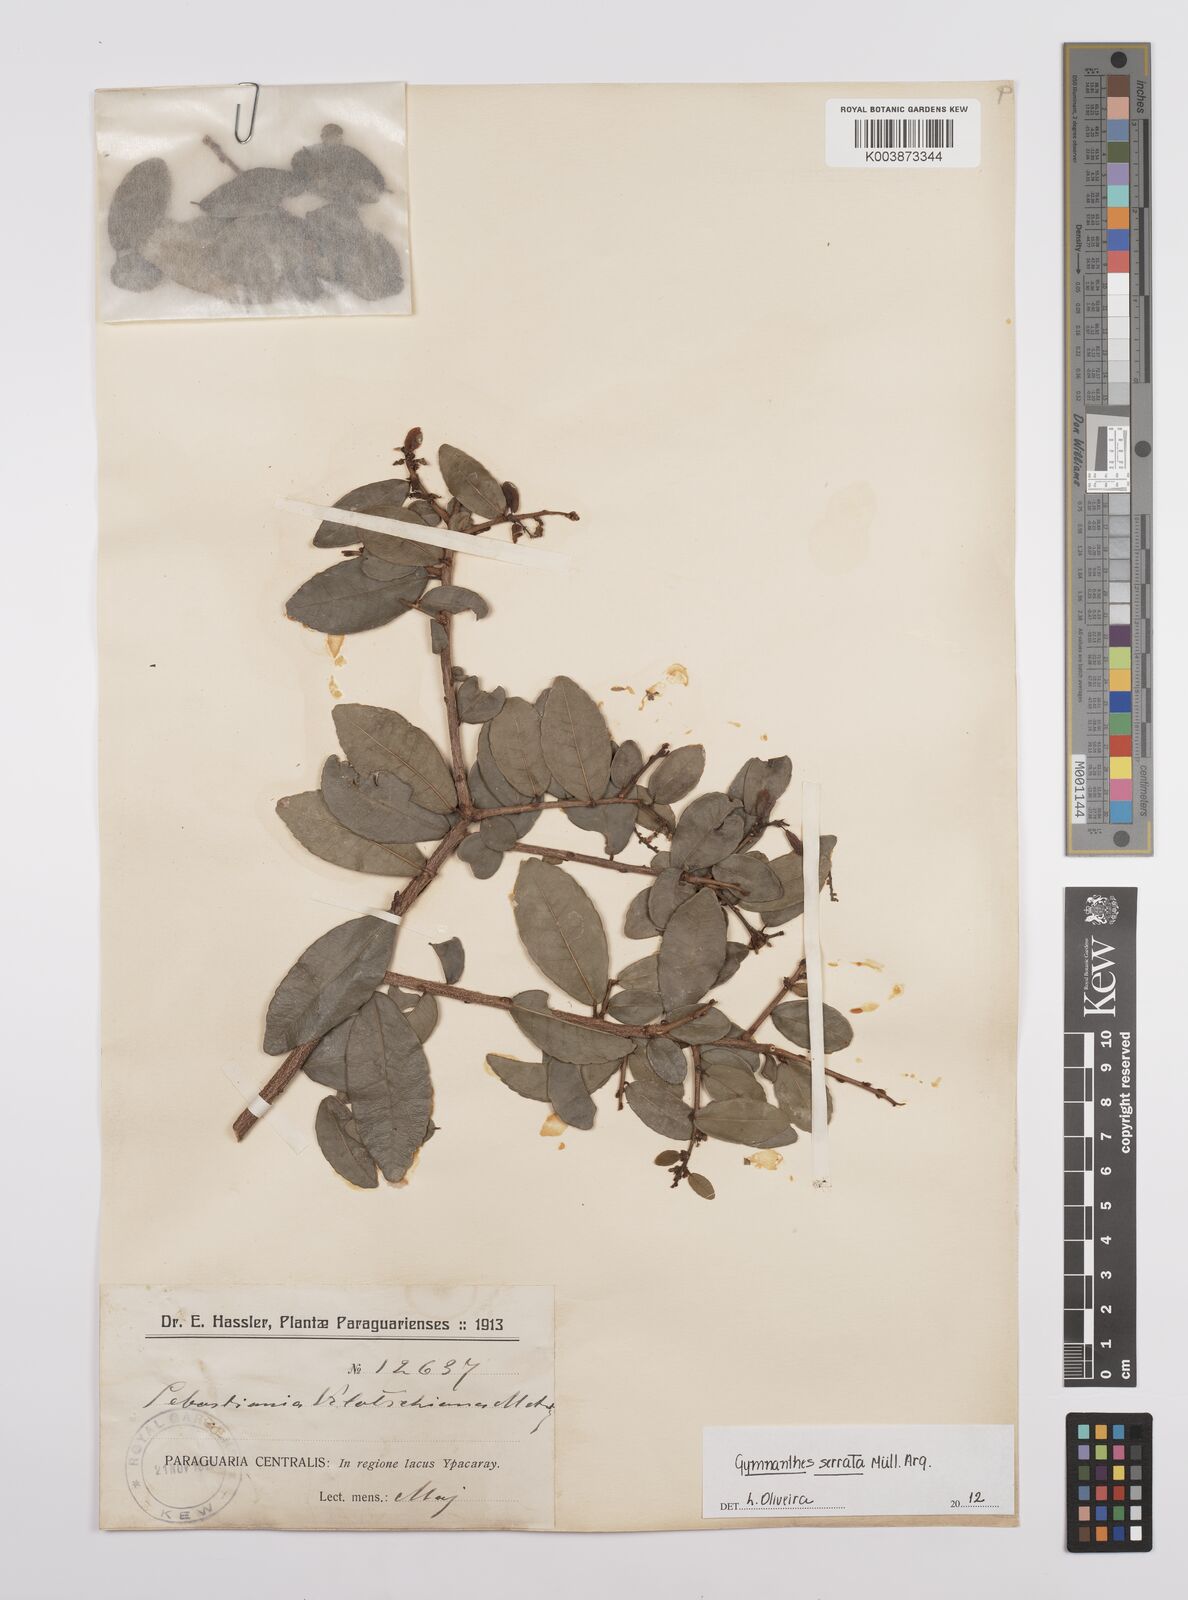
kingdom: Plantae
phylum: Tracheophyta
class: Magnoliopsida
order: Malpighiales
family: Euphorbiaceae
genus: Sebastiania
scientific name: Sebastiania serrata
